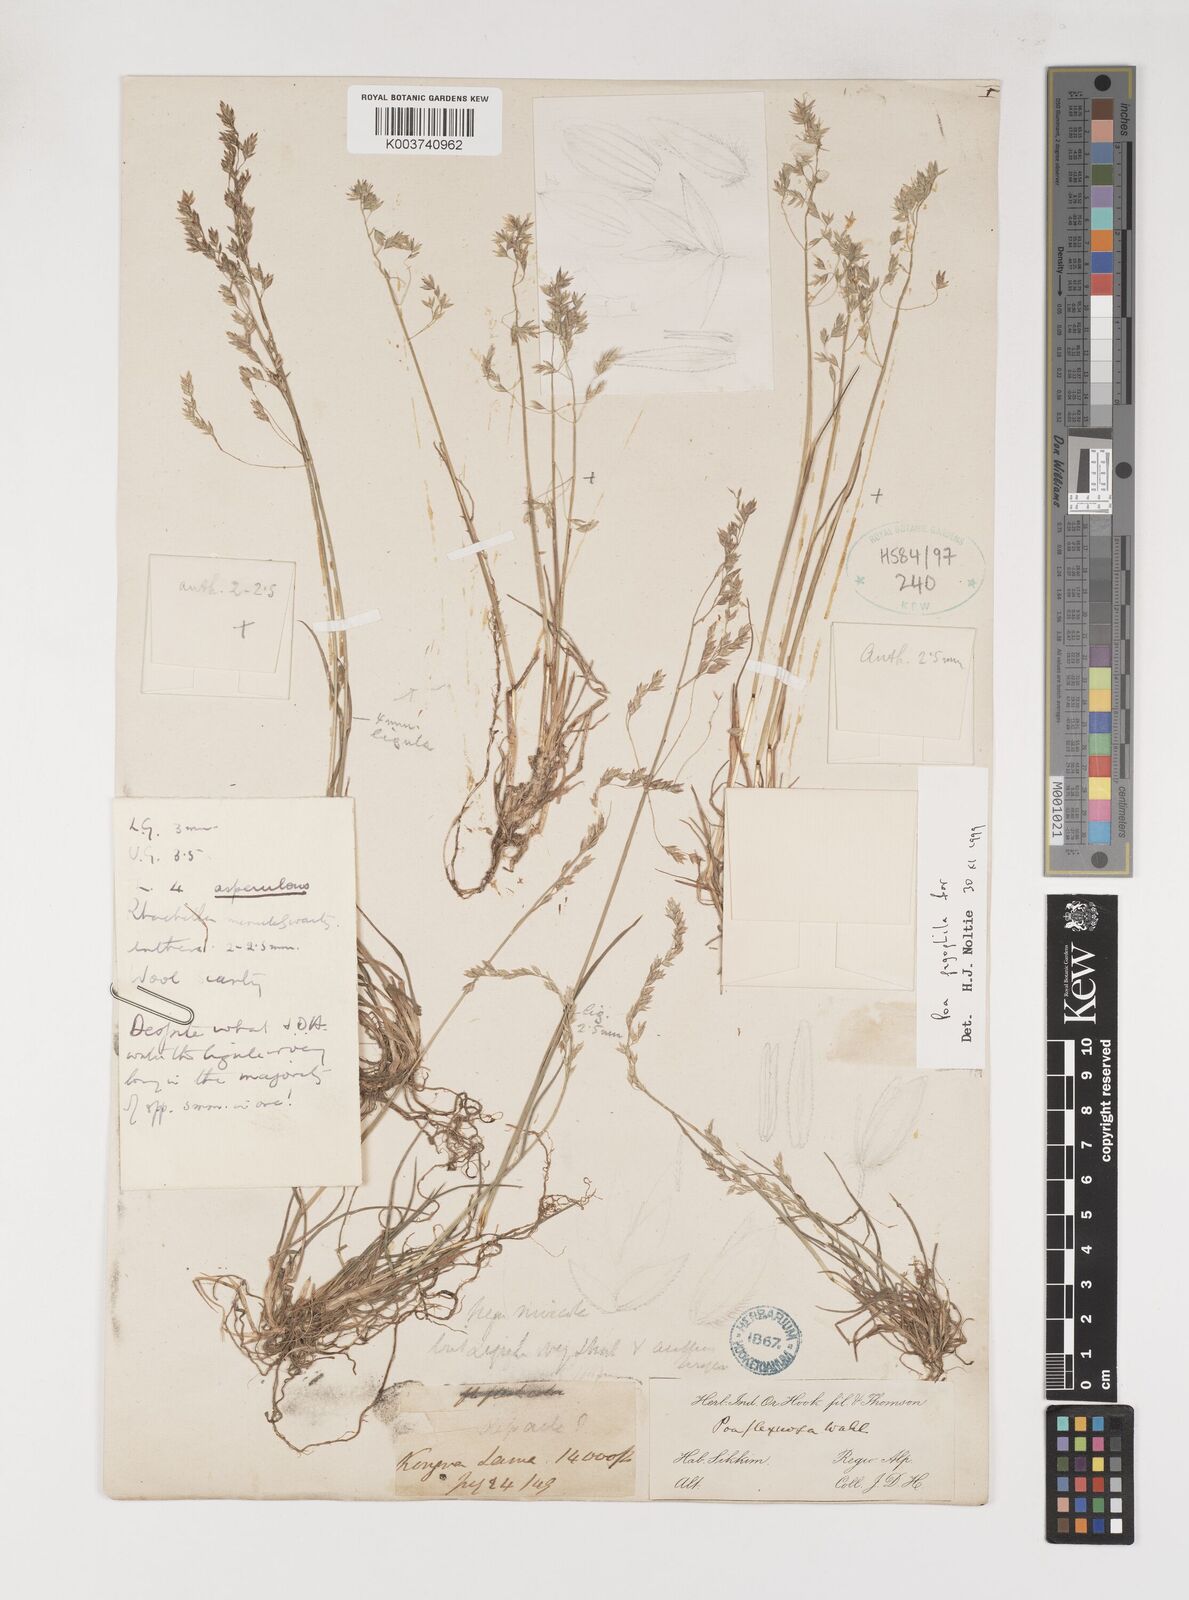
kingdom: Plantae
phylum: Tracheophyta
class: Liliopsida
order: Poales
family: Poaceae
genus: Poa
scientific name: Poa pagophila
